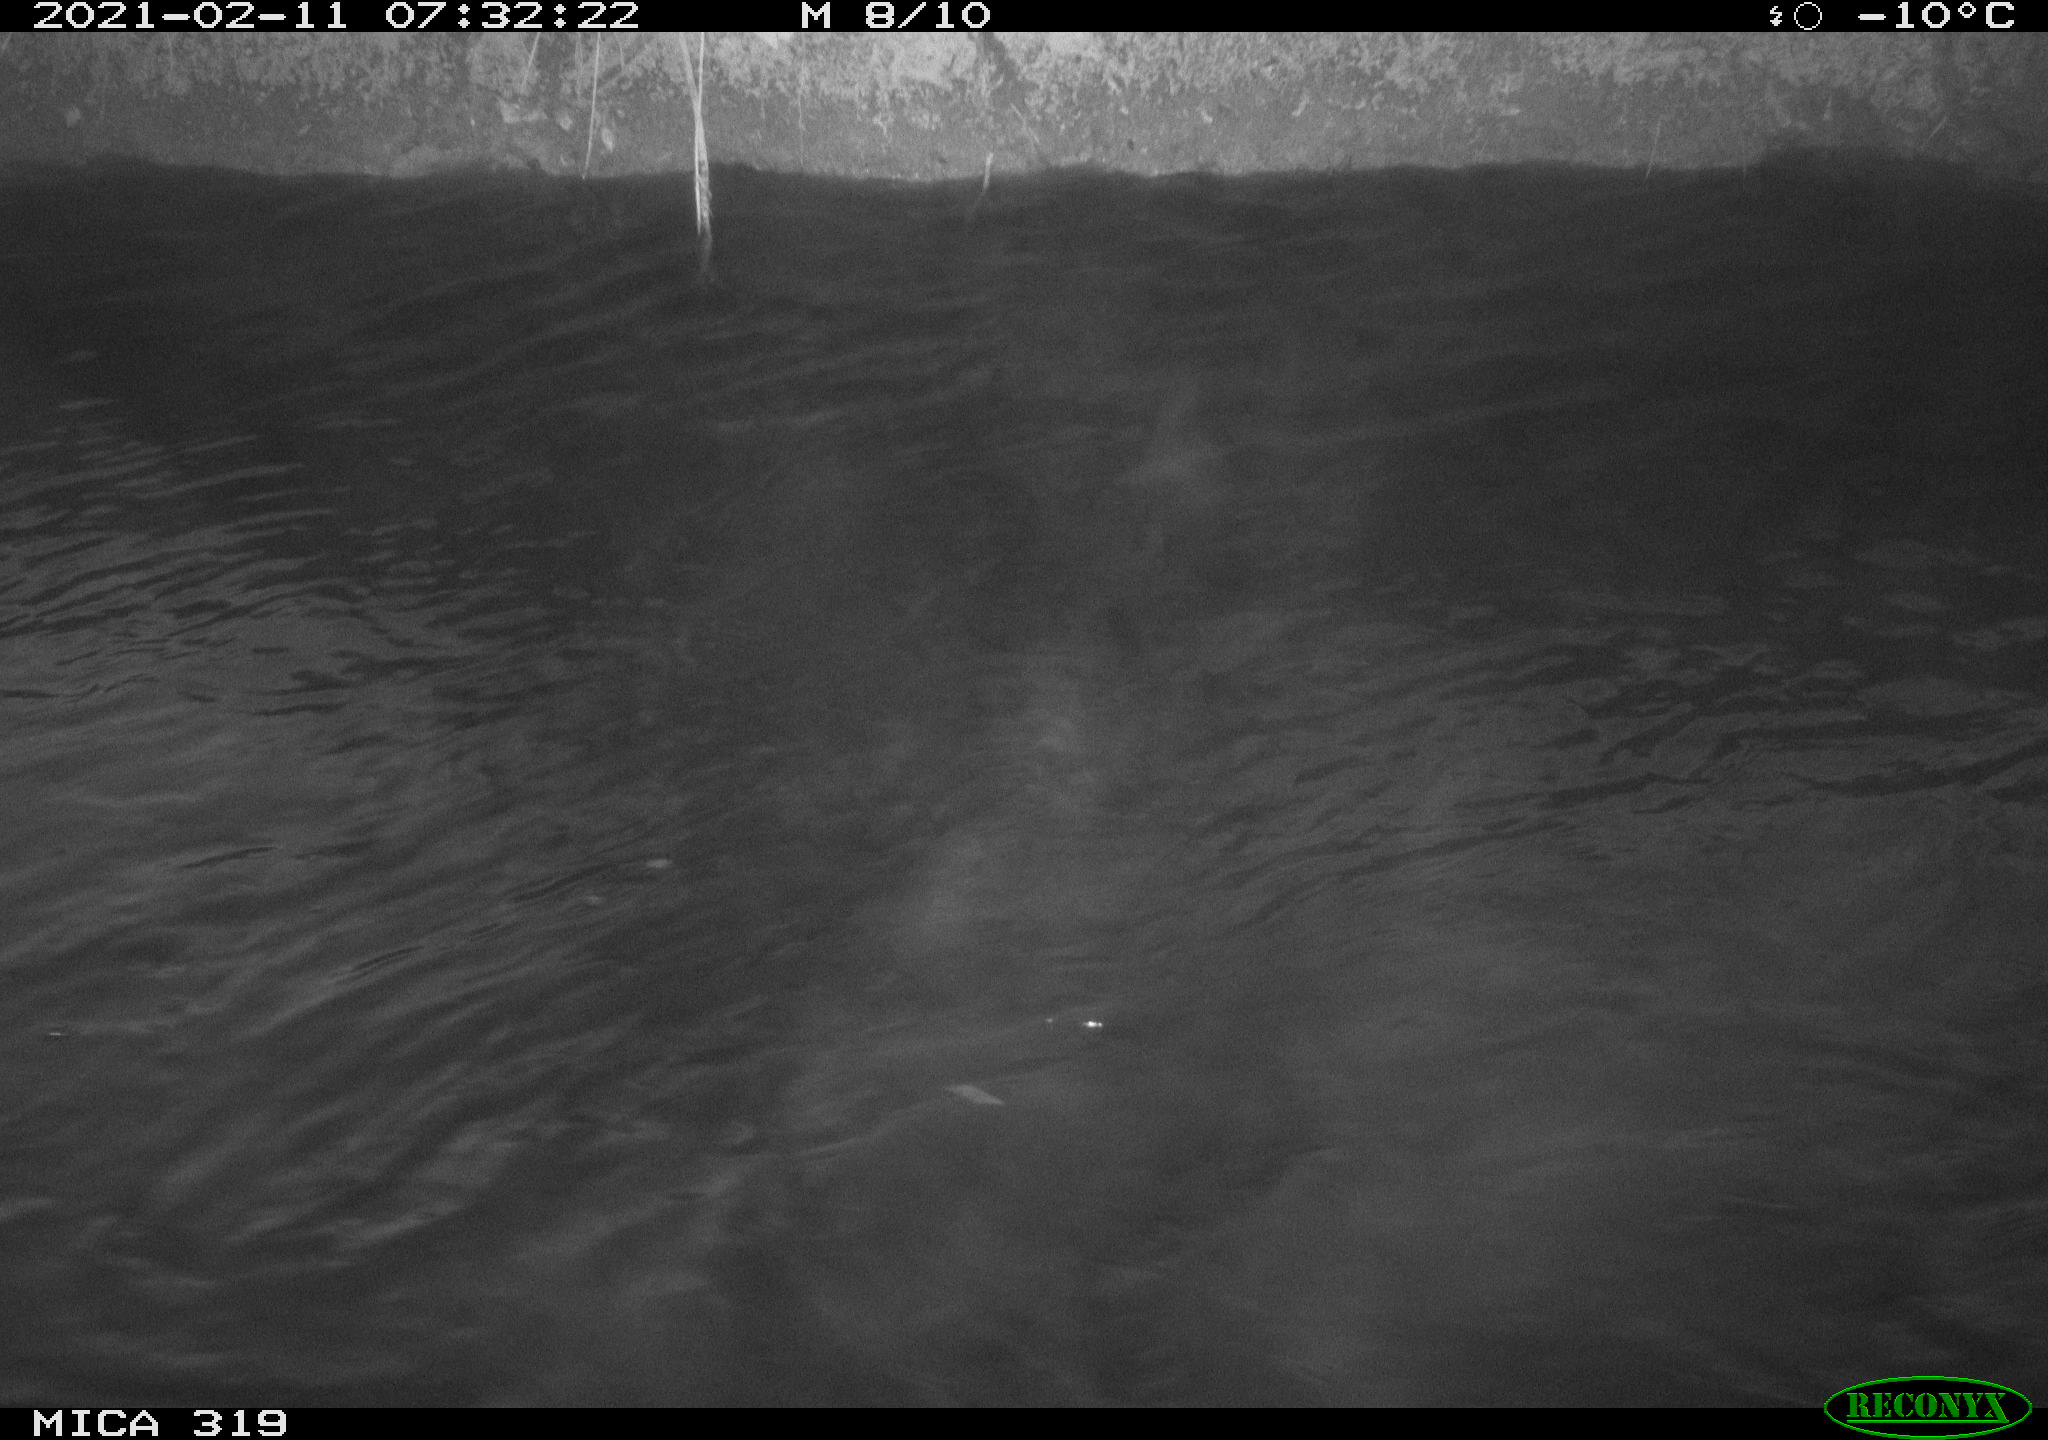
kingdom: Animalia
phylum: Chordata
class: Aves
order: Anseriformes
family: Anatidae
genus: Anas
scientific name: Anas platyrhynchos
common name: Mallard
